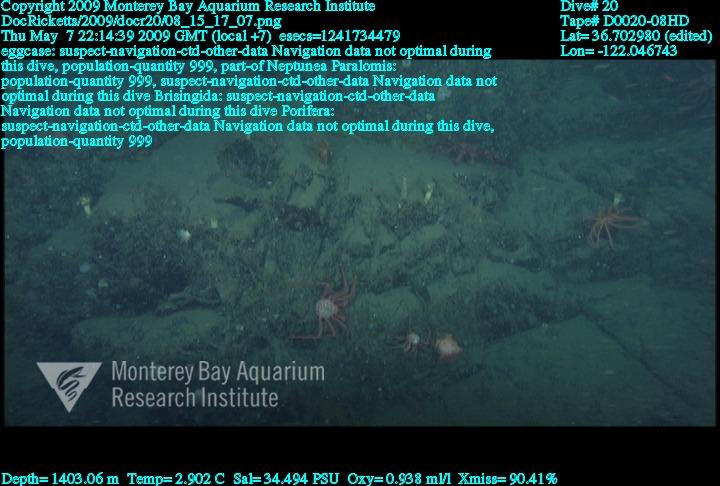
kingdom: Animalia
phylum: Porifera
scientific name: Porifera
